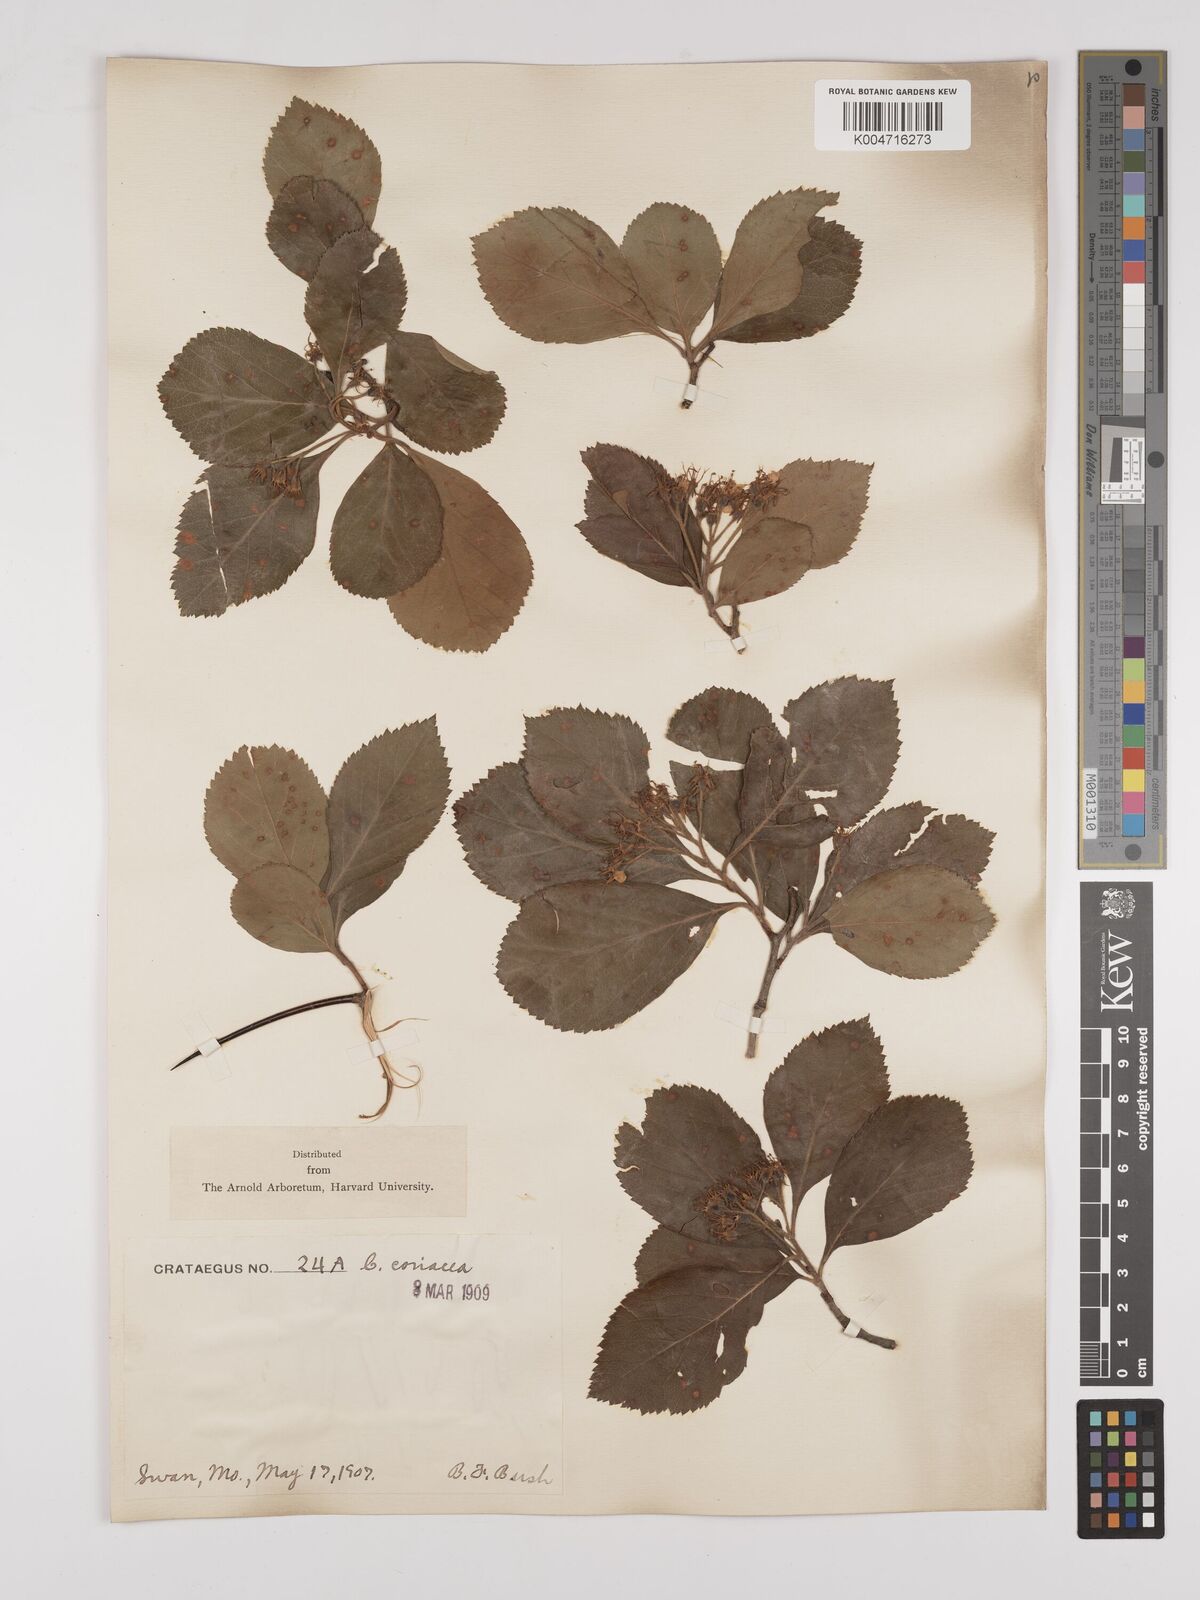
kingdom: Plantae
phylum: Tracheophyta
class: Magnoliopsida
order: Rosales
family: Rosaceae
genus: Crataegus
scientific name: Crataegus laevigata
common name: Midland hawthorn
